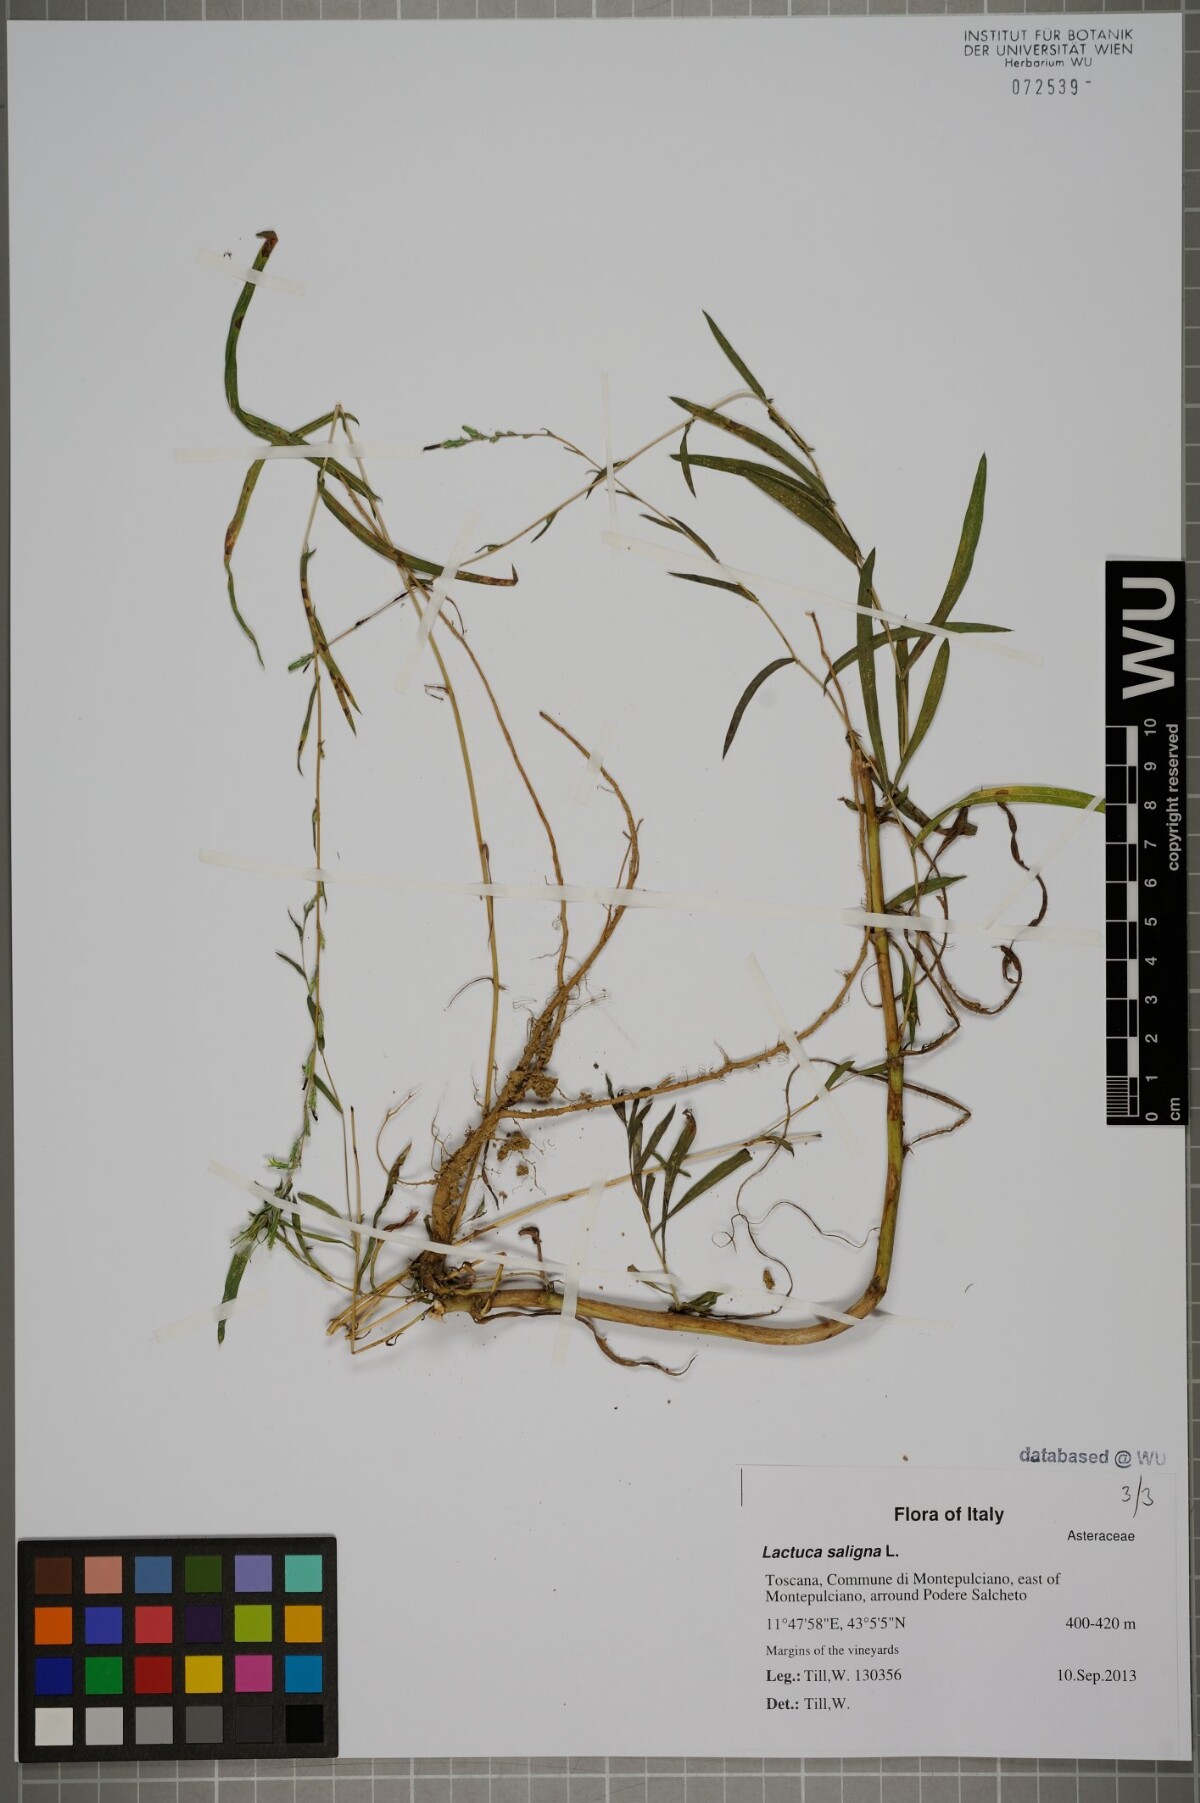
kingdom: Plantae
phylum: Tracheophyta
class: Magnoliopsida
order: Asterales
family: Asteraceae
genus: Lactuca
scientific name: Lactuca saligna
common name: Wild lettuce
